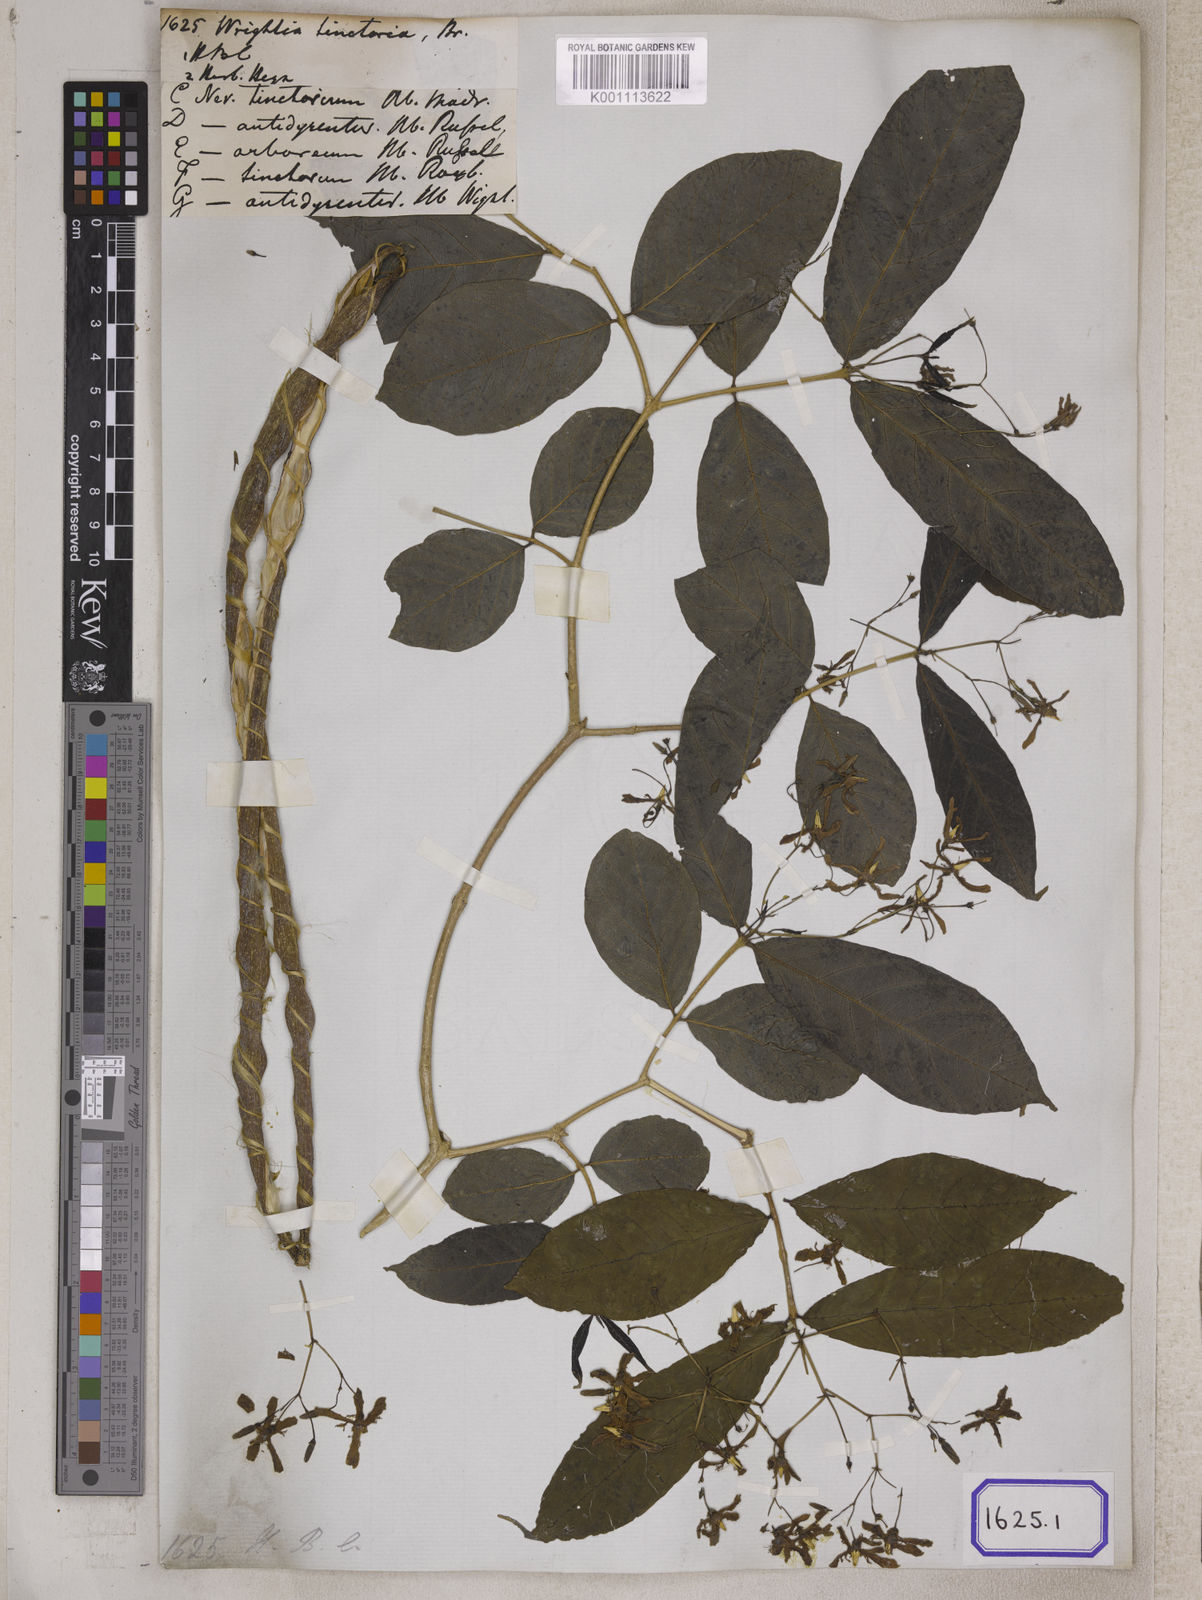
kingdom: Plantae
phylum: Tracheophyta
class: Magnoliopsida
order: Gentianales
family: Apocynaceae
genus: Wrightia
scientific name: Wrightia tinctoria
